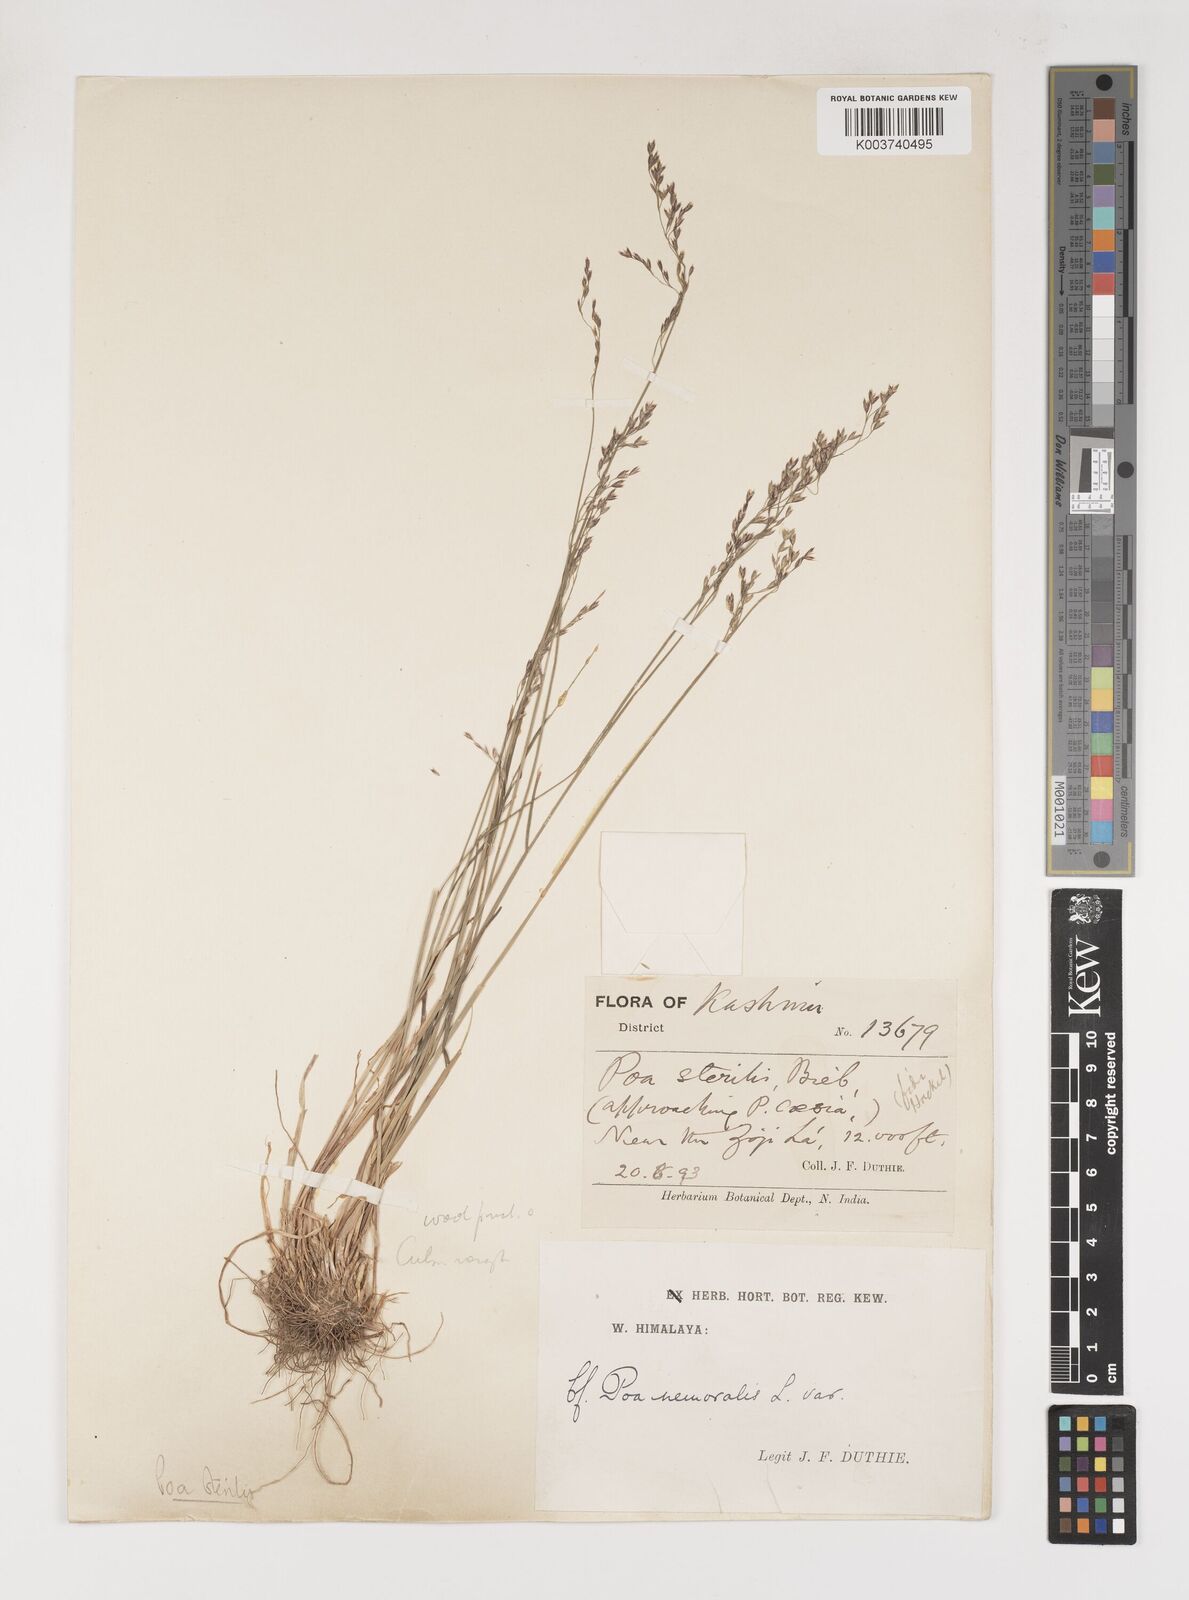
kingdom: Plantae
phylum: Tracheophyta
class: Liliopsida
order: Poales
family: Poaceae
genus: Poa
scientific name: Poa sterilis
